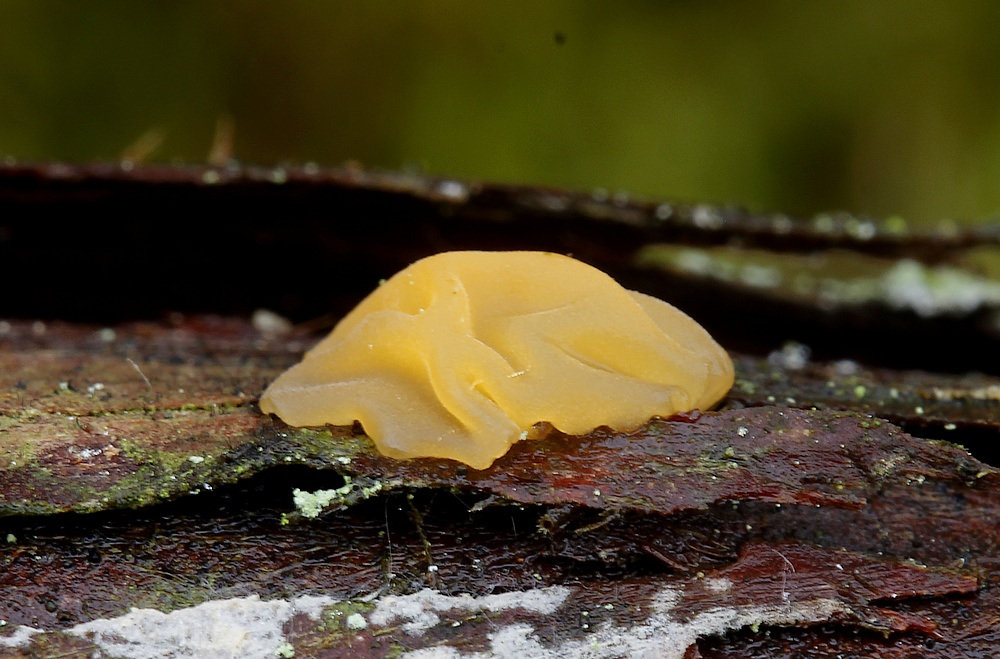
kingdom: Fungi
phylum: Basidiomycota
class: Dacrymycetes
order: Dacrymycetales
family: Dacrymycetaceae
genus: Dacrymyces
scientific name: Dacrymyces stillatus
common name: almindelig tåresvamp
